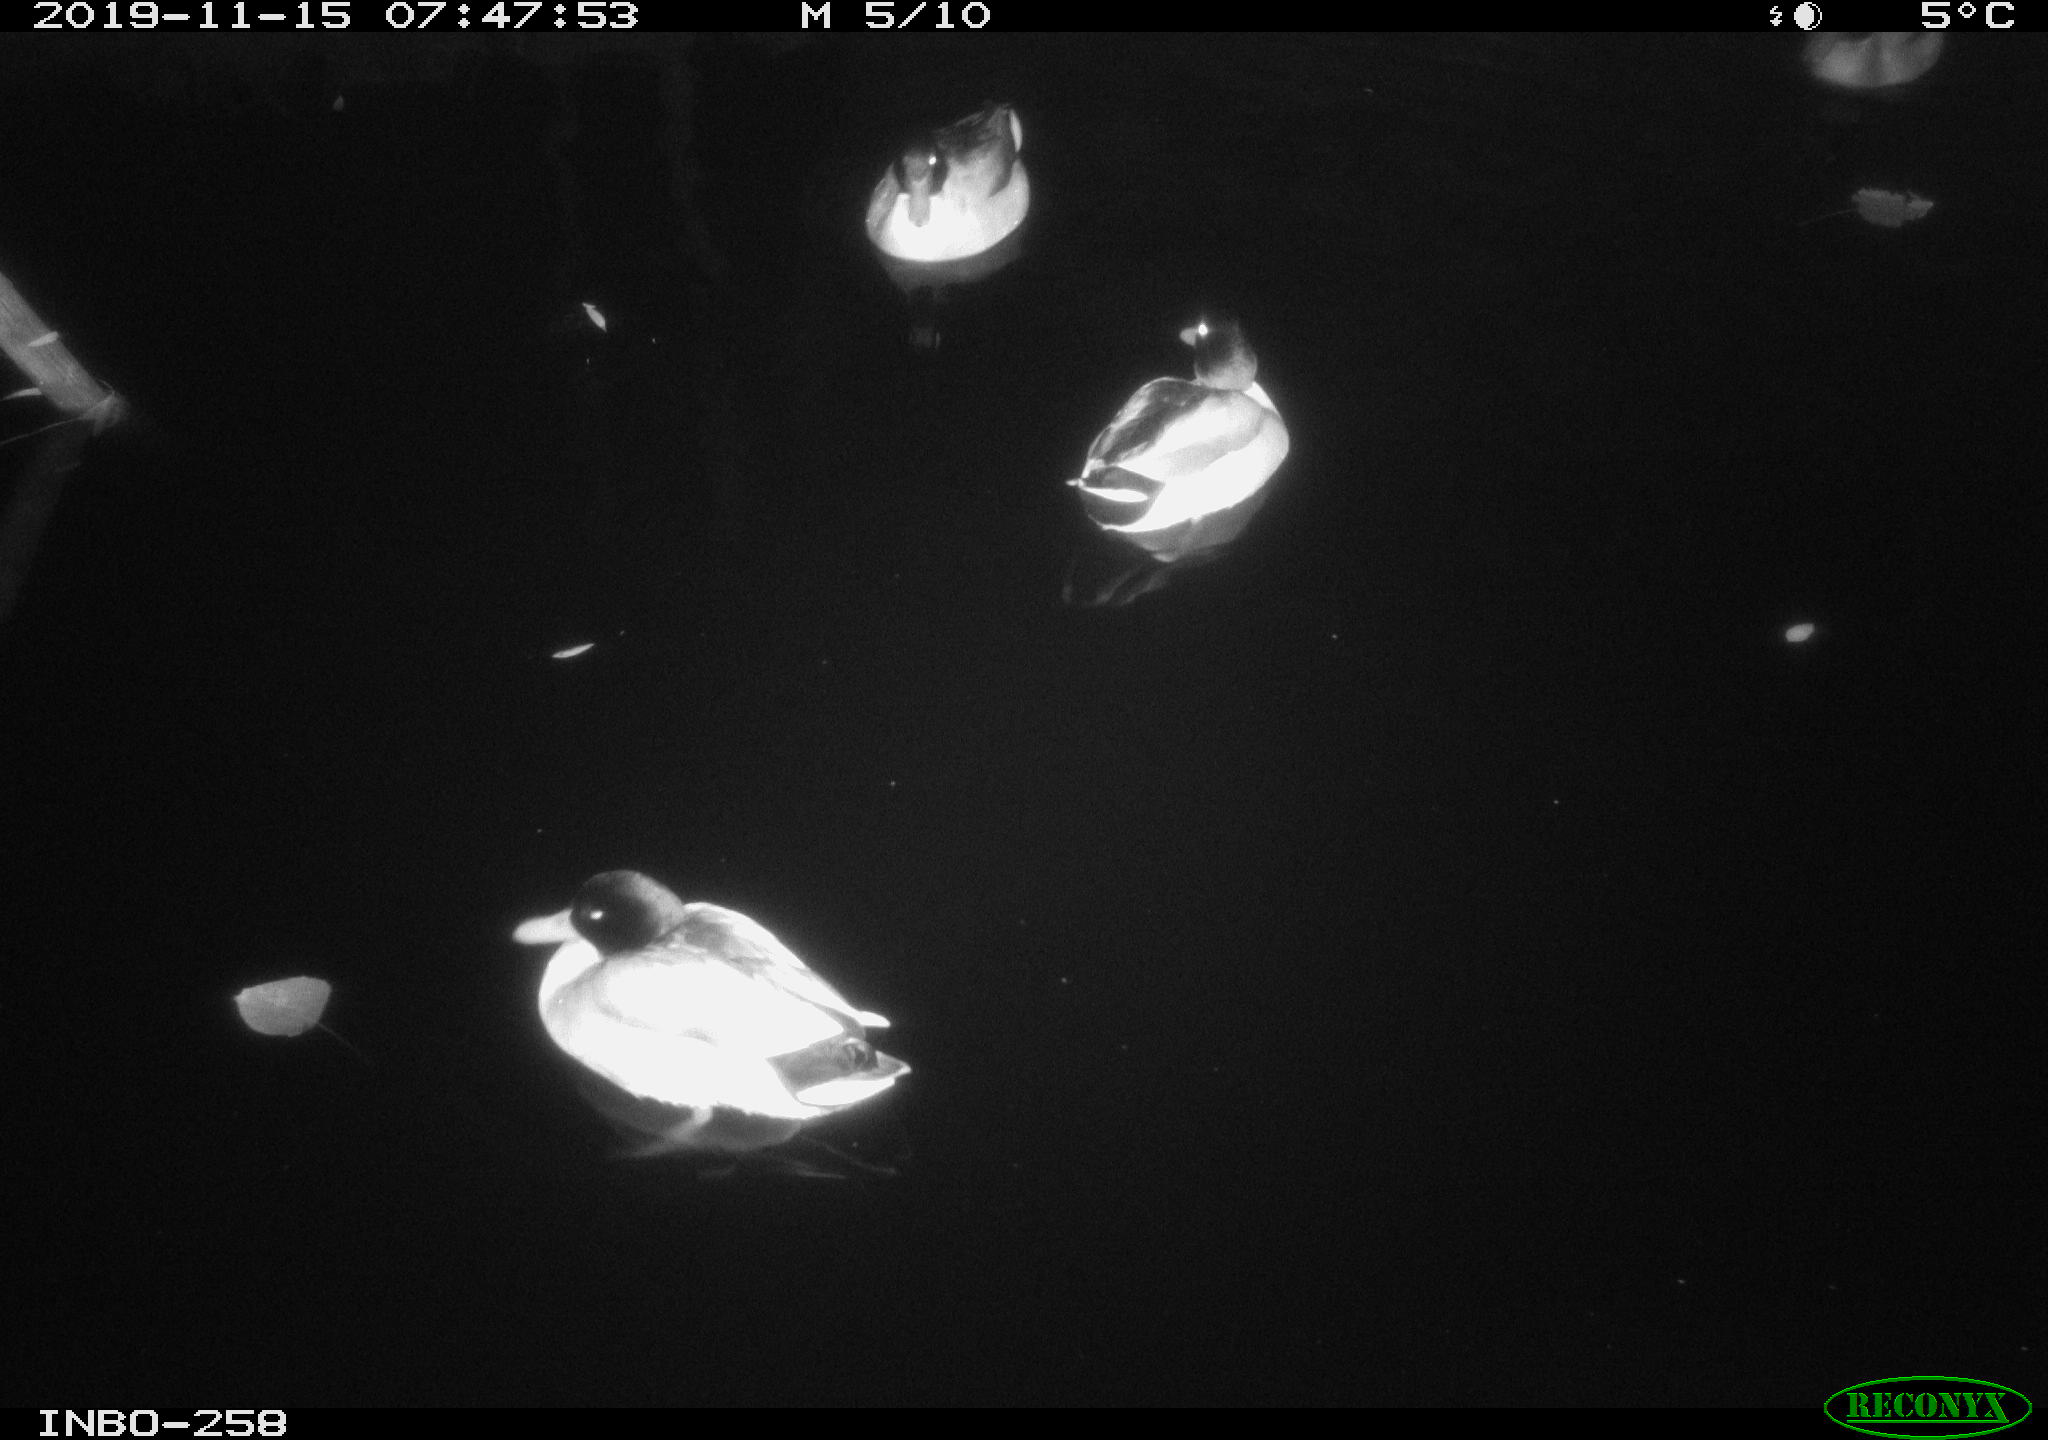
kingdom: Animalia
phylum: Chordata
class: Aves
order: Anseriformes
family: Anatidae
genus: Anas
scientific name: Anas platyrhynchos
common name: Mallard
